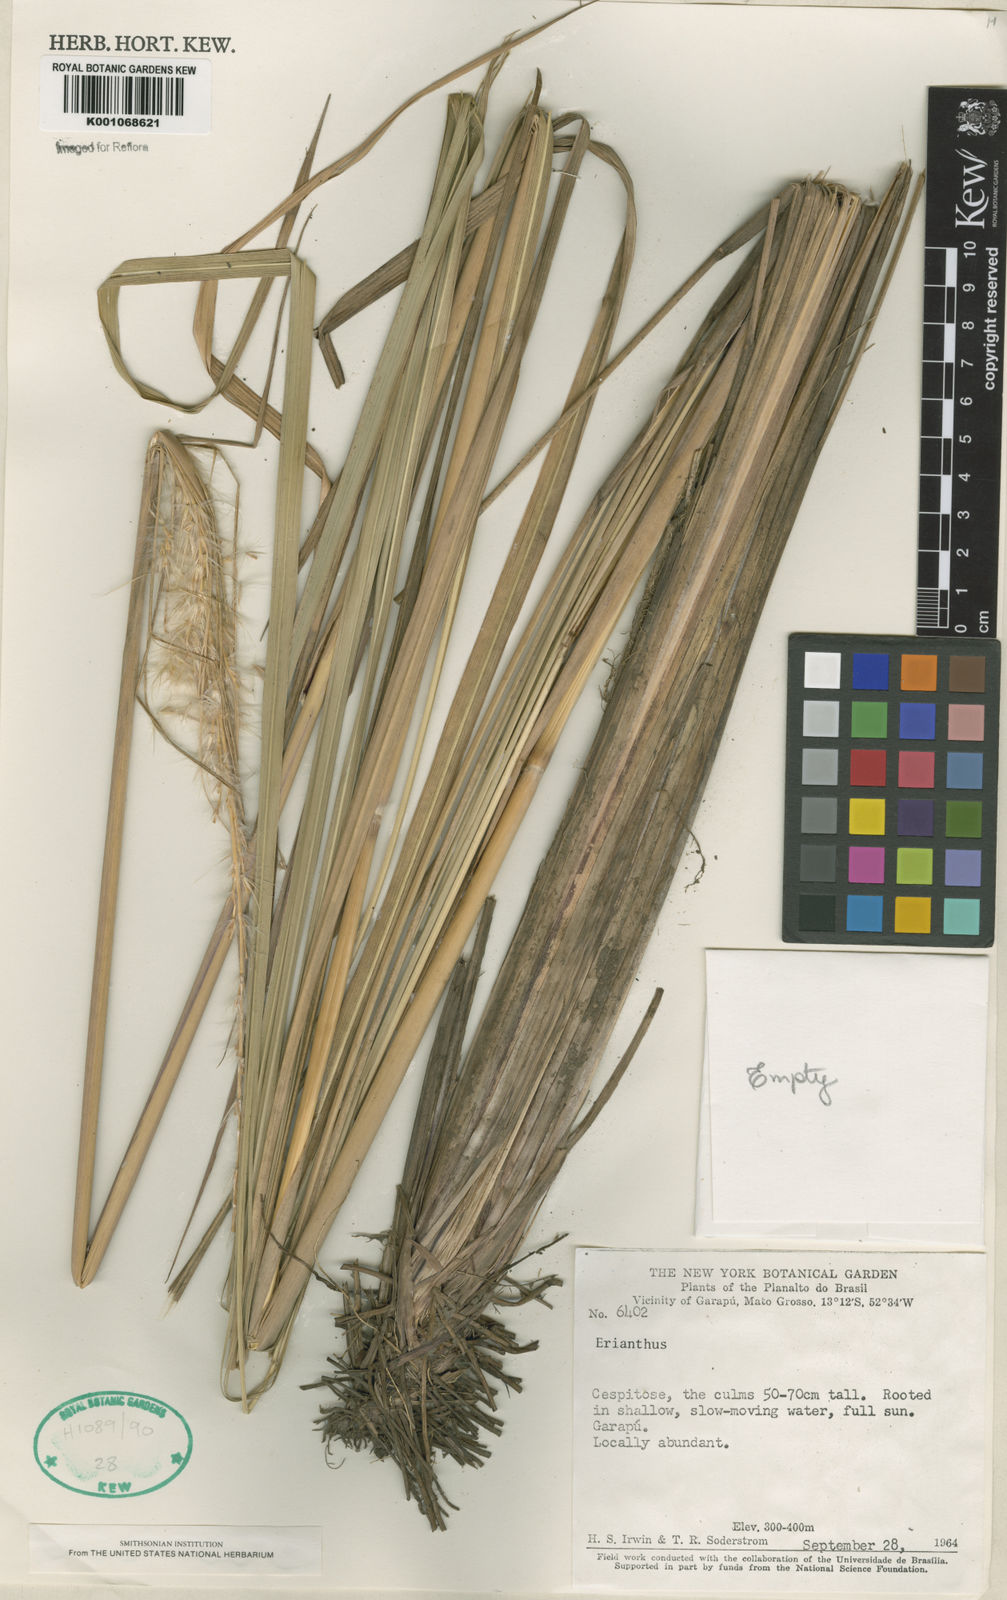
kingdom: Plantae
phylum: Tracheophyta
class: Liliopsida
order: Poales
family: Poaceae
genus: Saccharum
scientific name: Saccharum angustifolium
